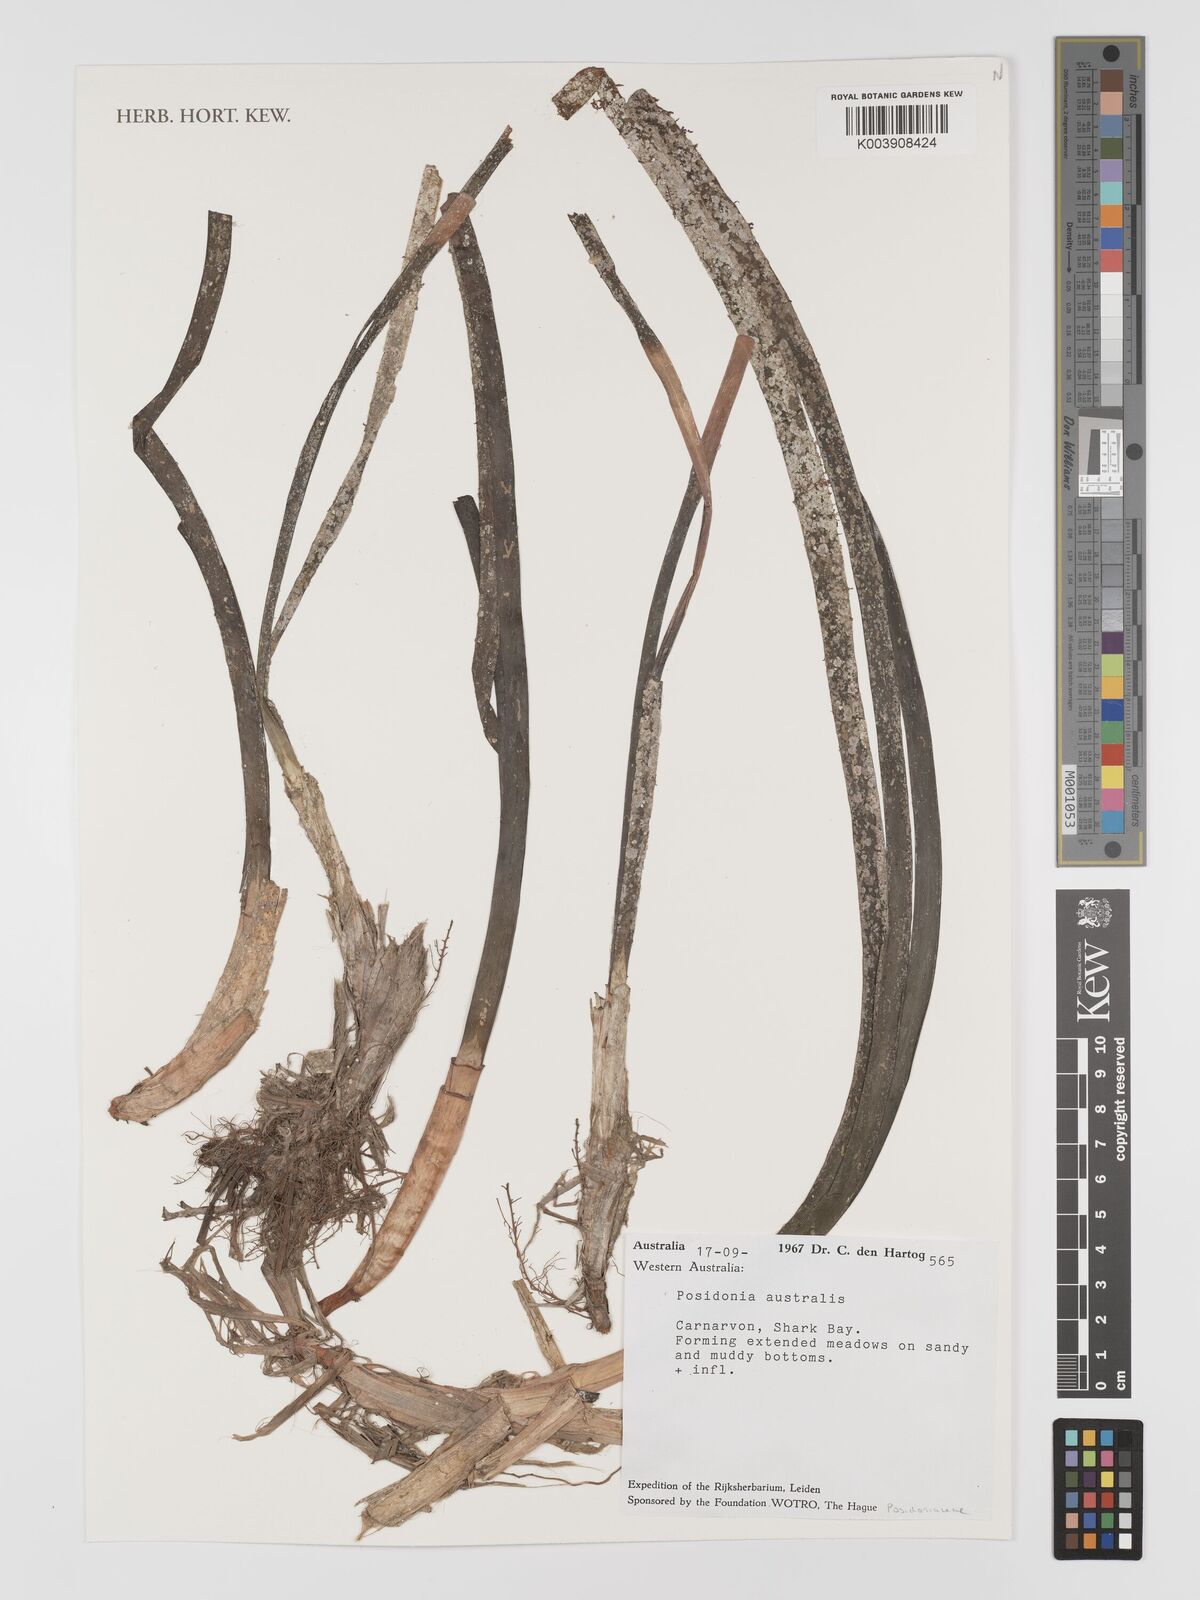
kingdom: Plantae
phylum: Tracheophyta
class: Liliopsida
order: Alismatales
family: Posidoniaceae
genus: Posidonia
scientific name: Posidonia australis
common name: Species code: pa
